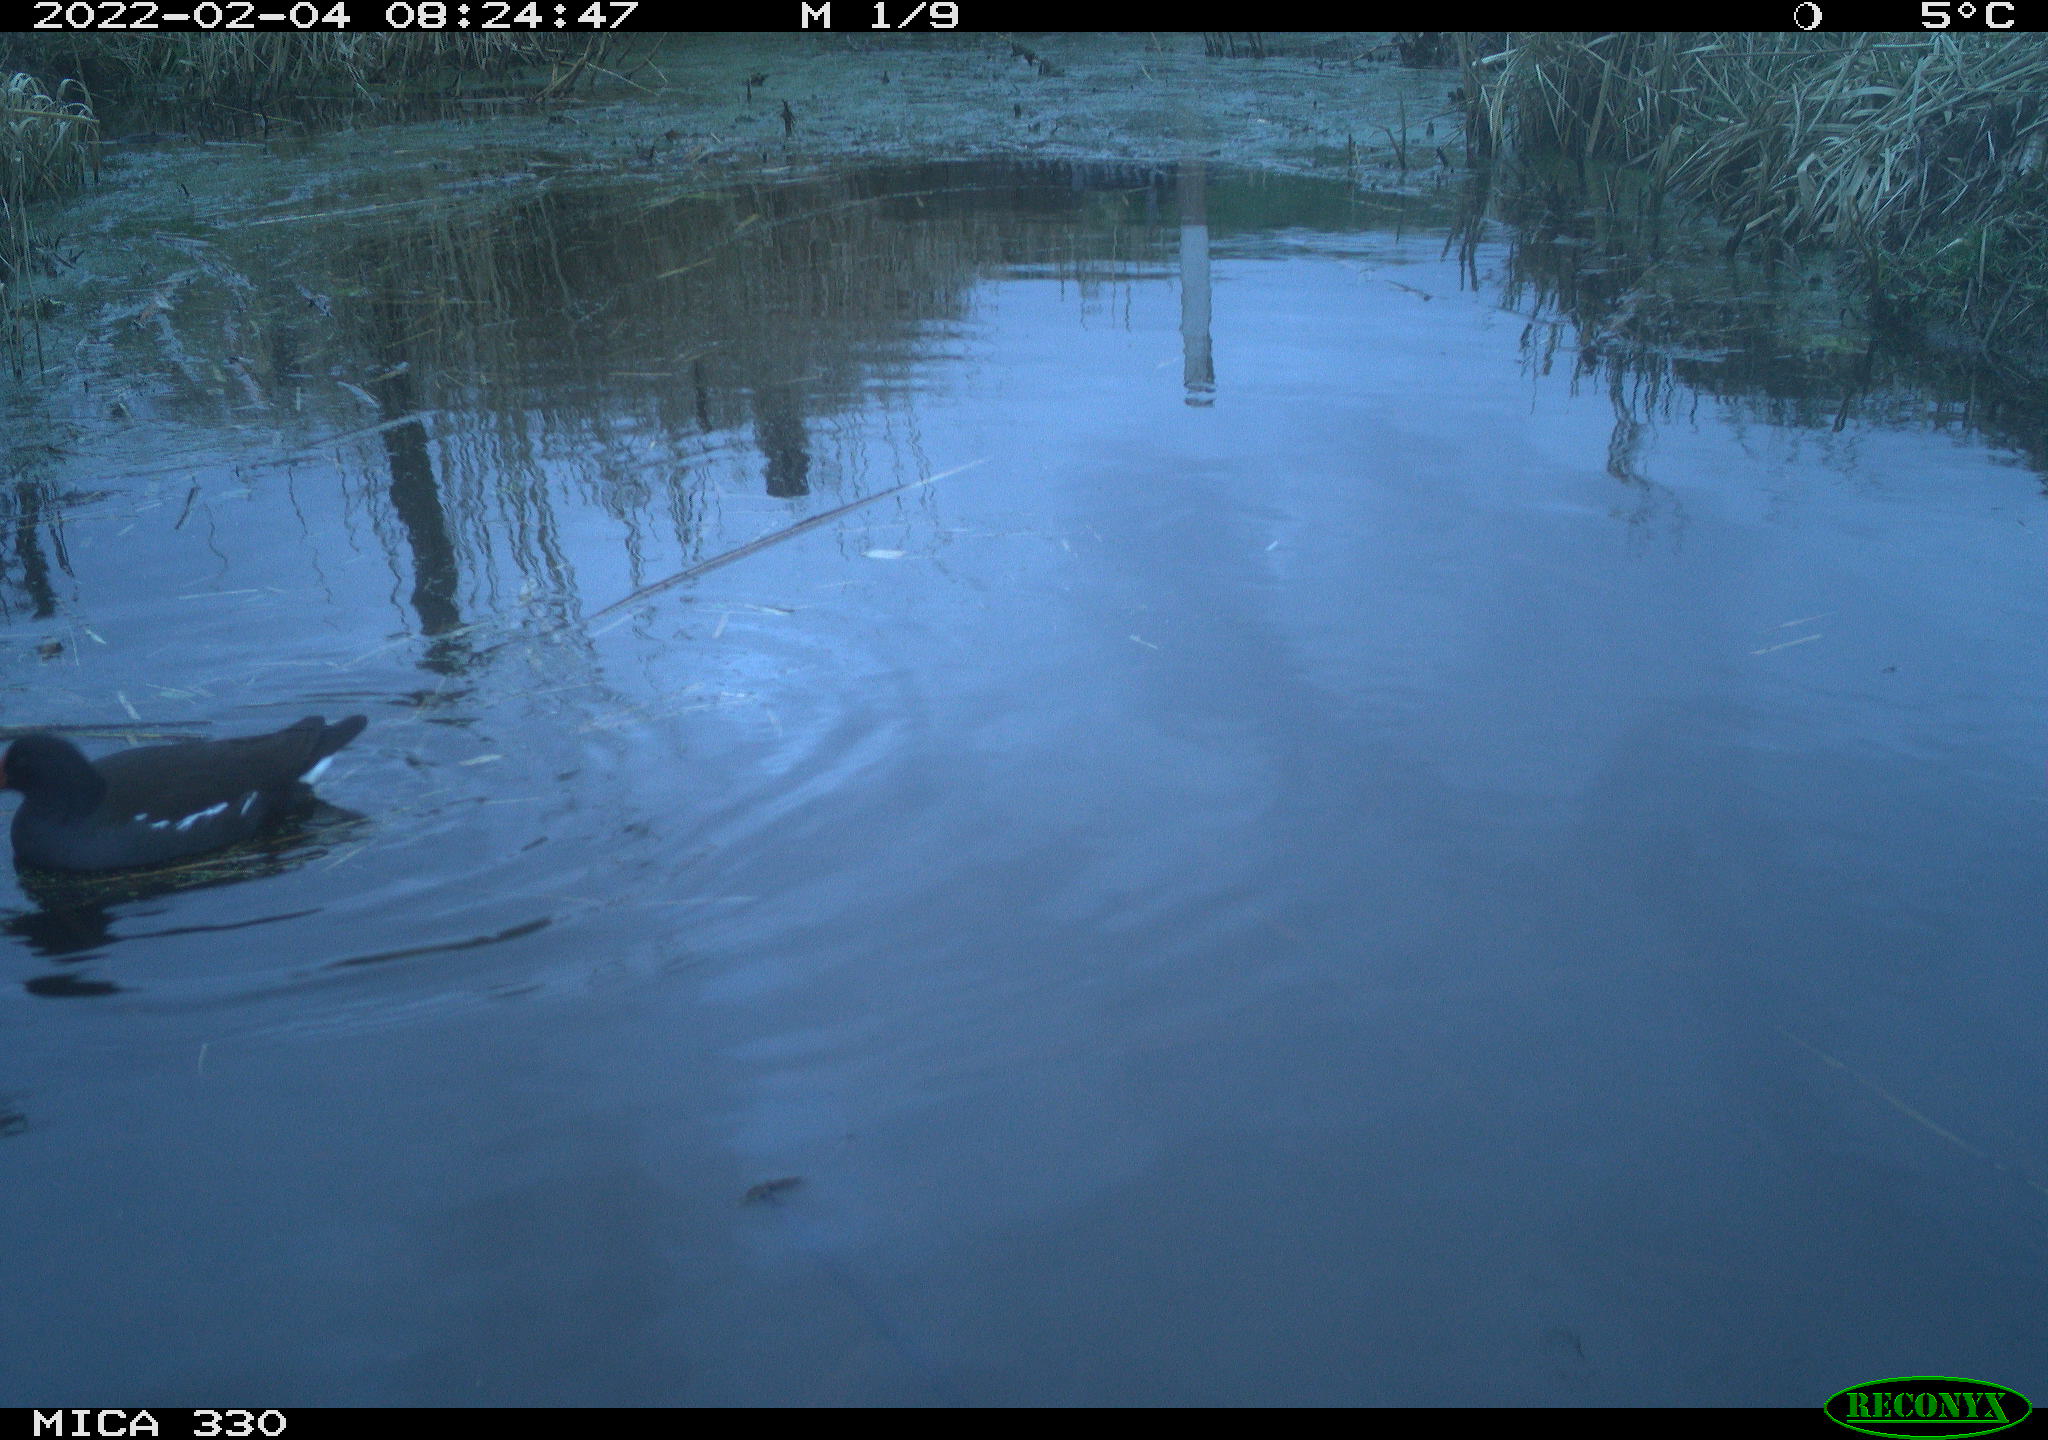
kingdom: Animalia
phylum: Chordata
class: Aves
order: Gruiformes
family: Rallidae
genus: Gallinula
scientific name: Gallinula chloropus
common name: Common moorhen
